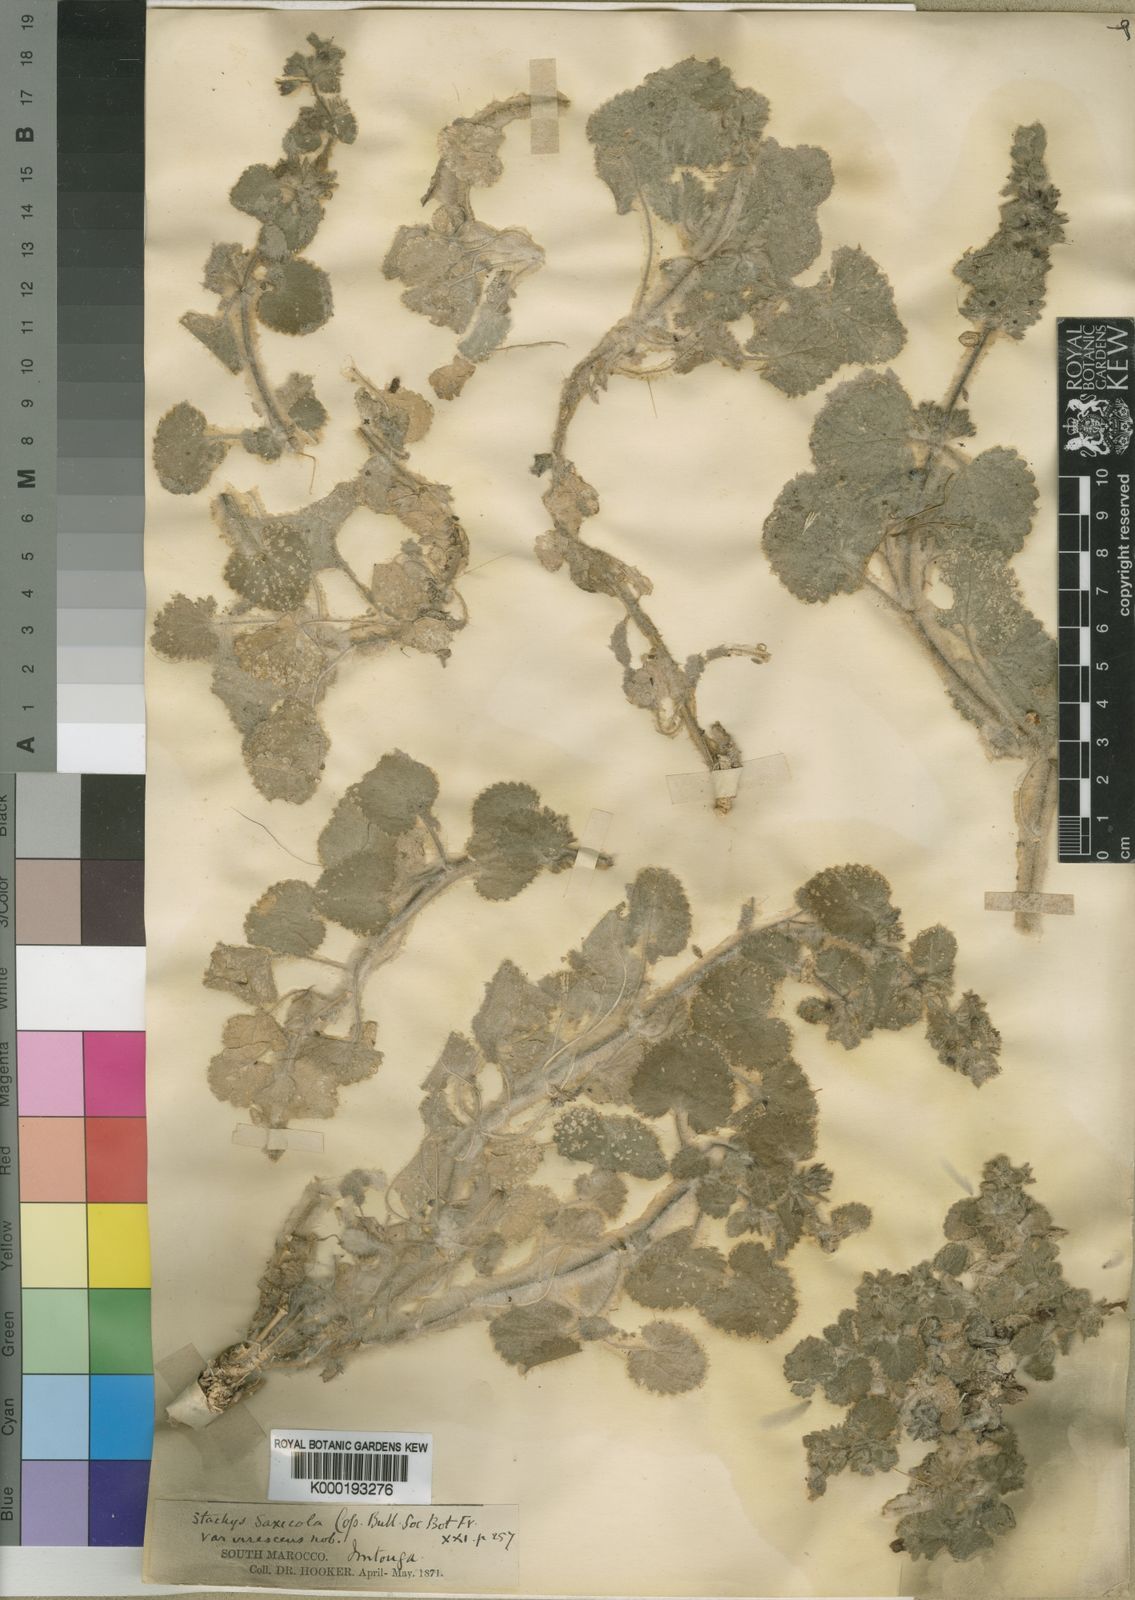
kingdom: Plantae
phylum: Tracheophyta
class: Magnoliopsida
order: Lamiales
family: Lamiaceae
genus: Stachys
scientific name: Stachys saxicola
